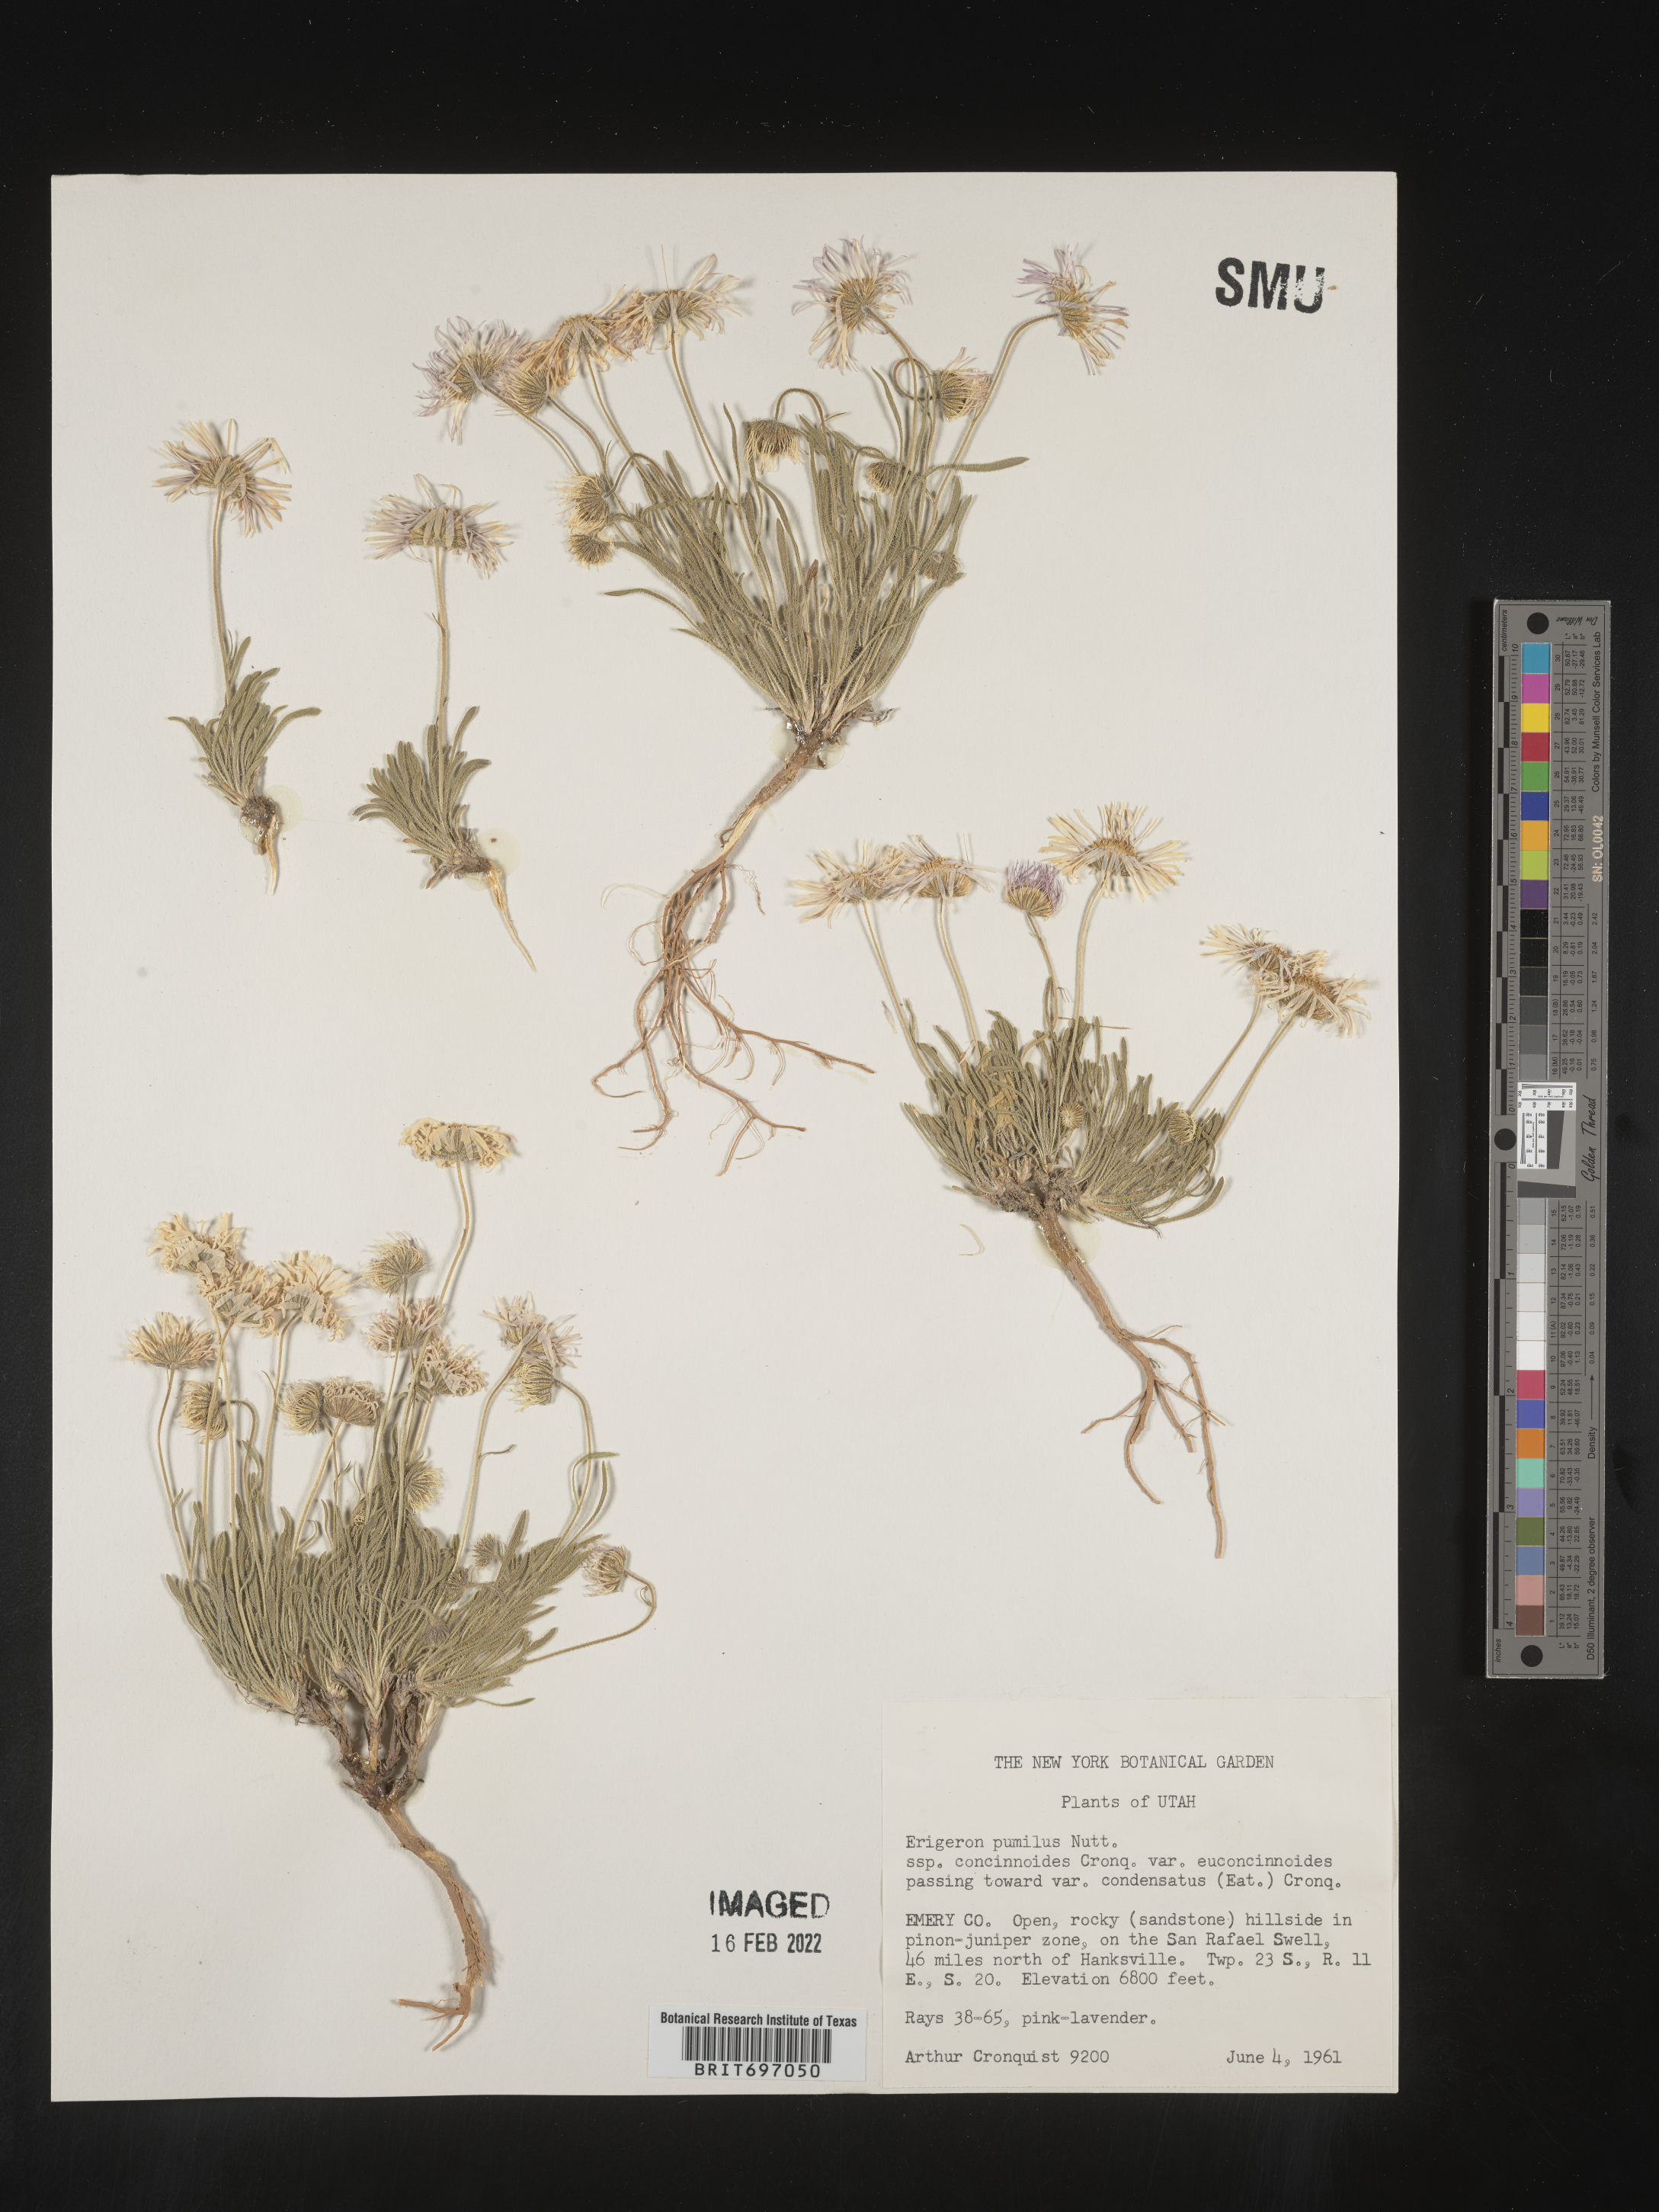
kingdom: Plantae
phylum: Tracheophyta
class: Magnoliopsida
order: Asterales
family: Asteraceae
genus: Erigeron
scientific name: Erigeron concinnus
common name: Navajo fleabane
